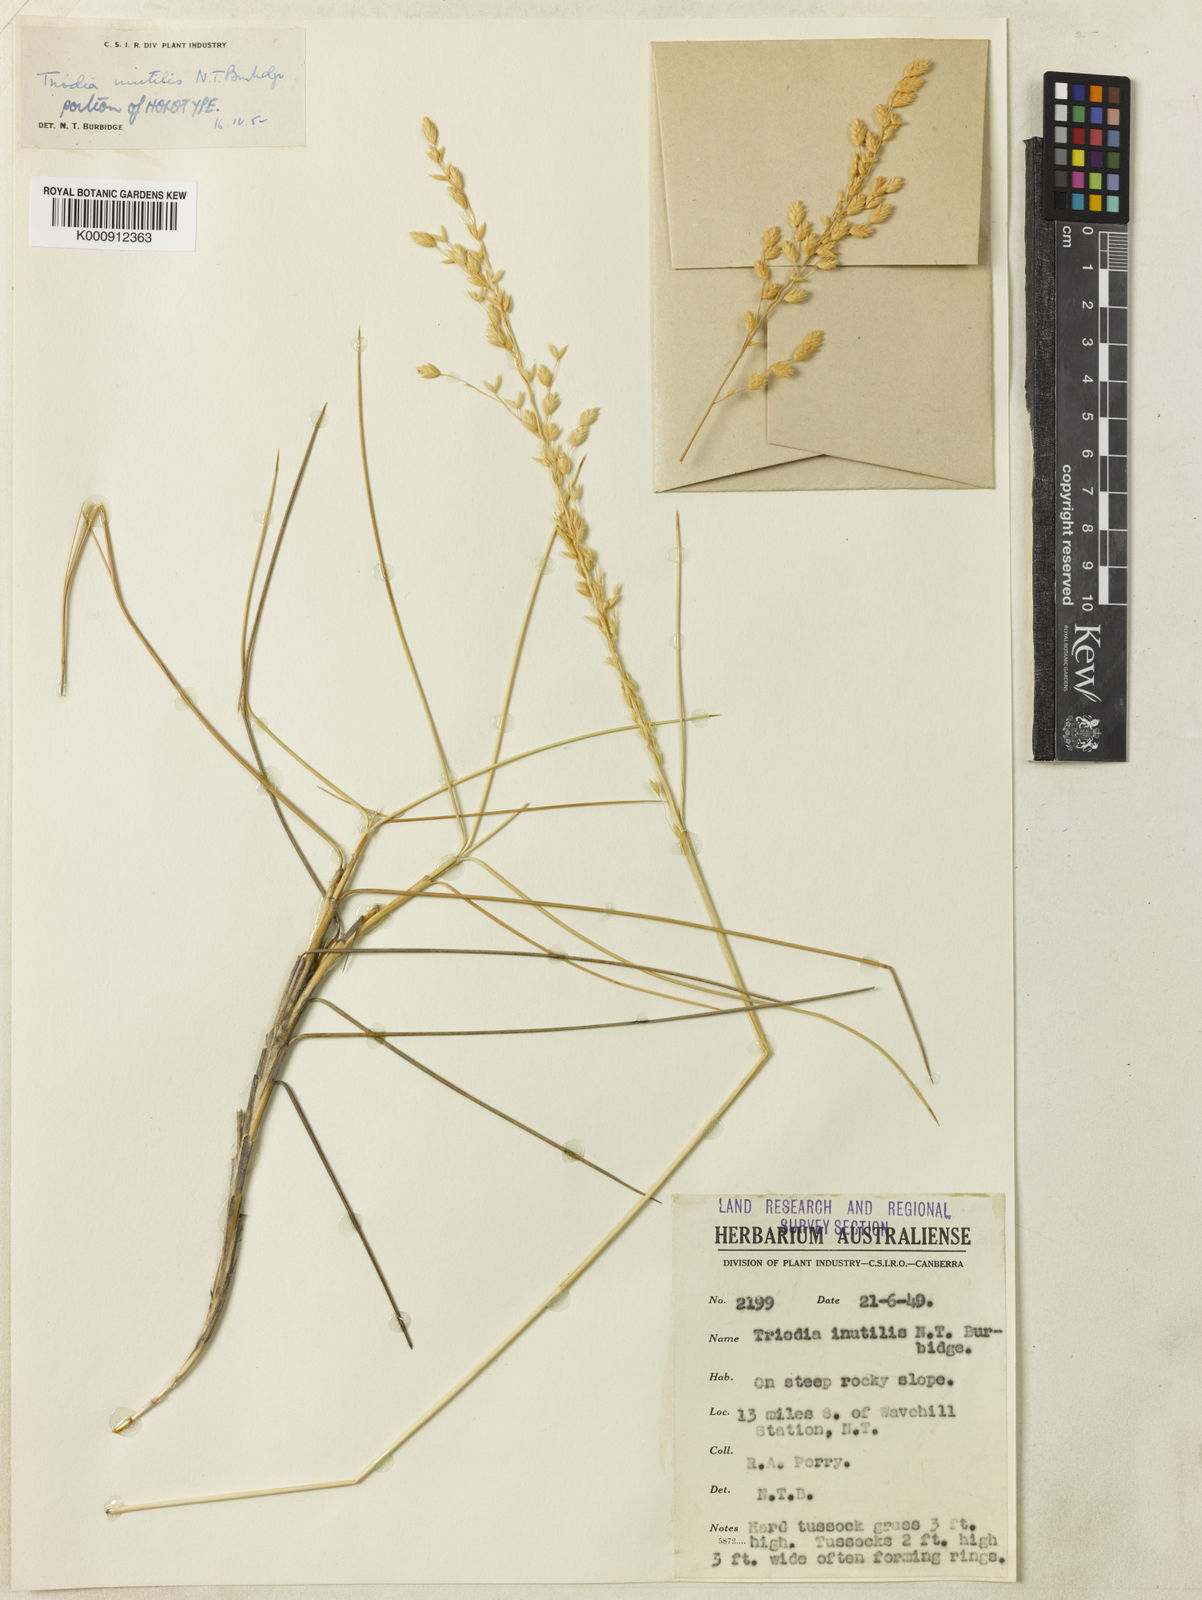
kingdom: Plantae
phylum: Tracheophyta
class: Liliopsida
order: Poales
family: Poaceae
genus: Triodia
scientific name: Triodia inutilis
